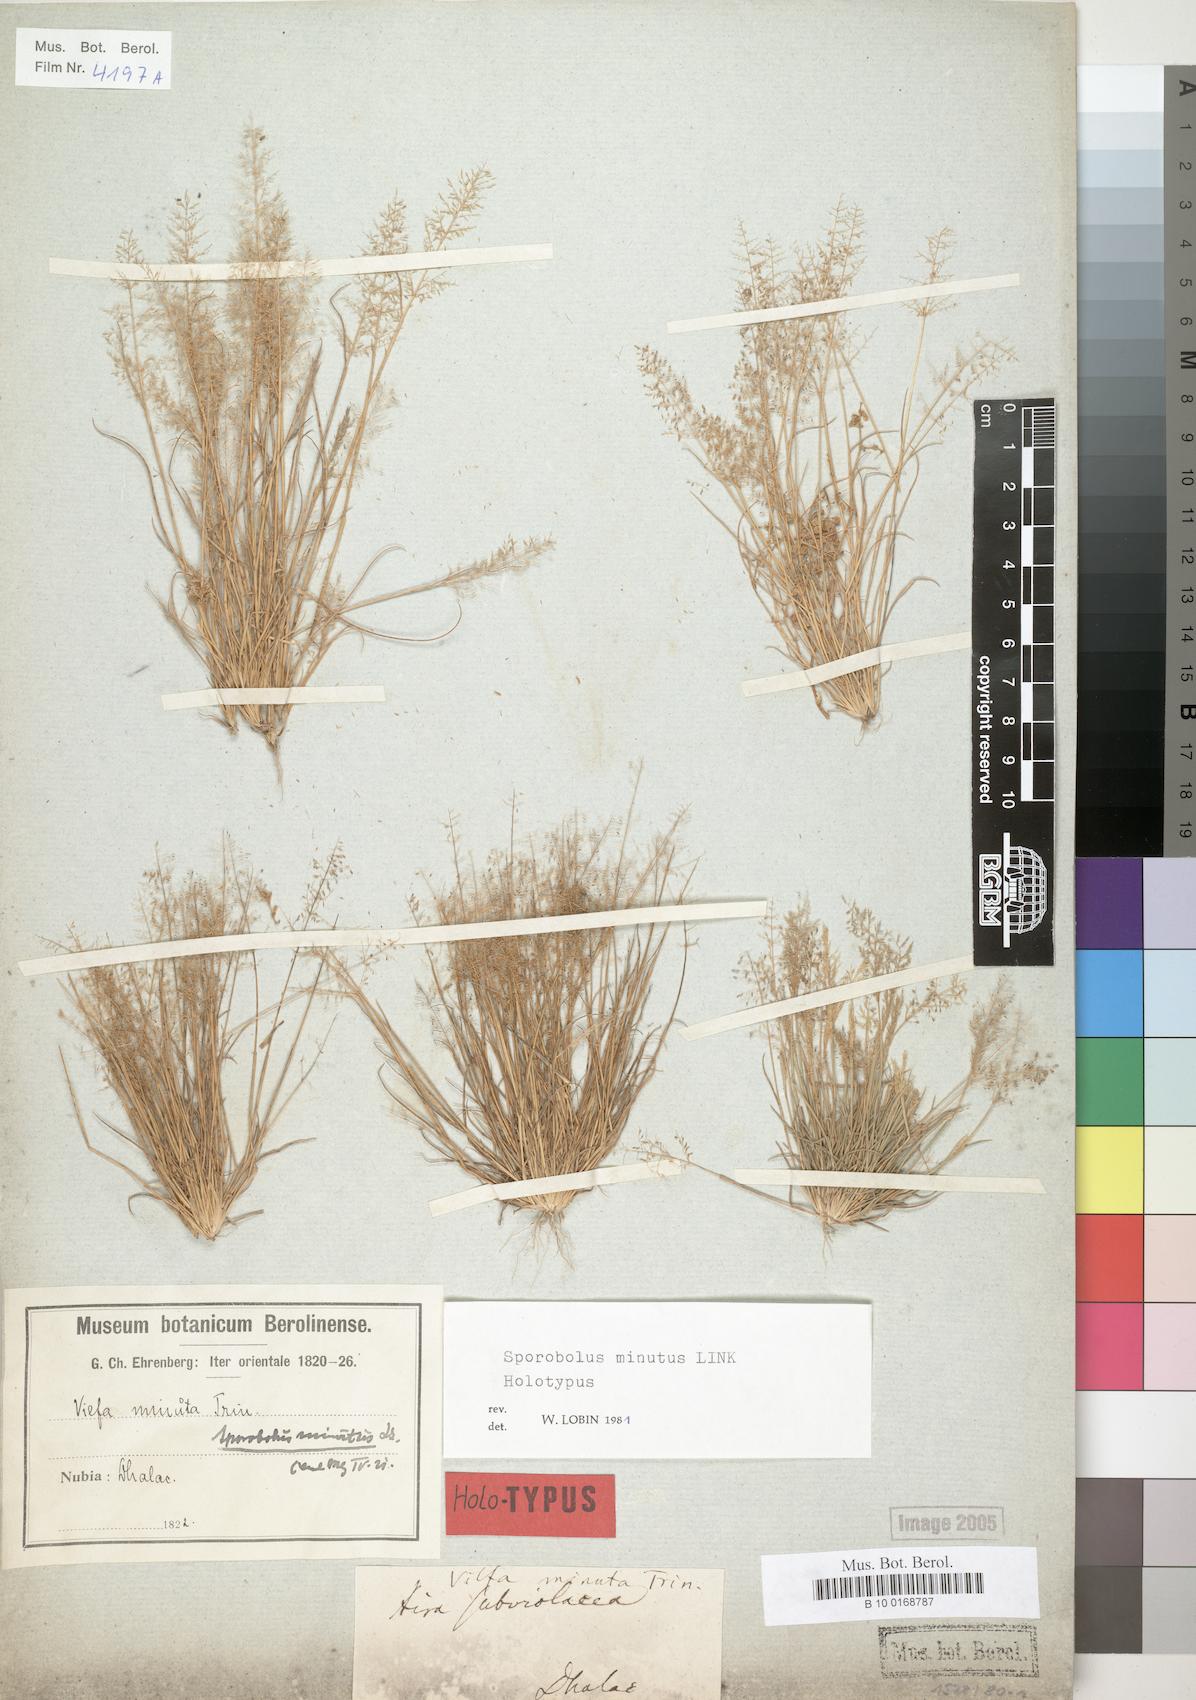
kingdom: Plantae
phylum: Tracheophyta
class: Liliopsida
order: Poales
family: Poaceae
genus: Sporobolus
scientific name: Sporobolus minutus
